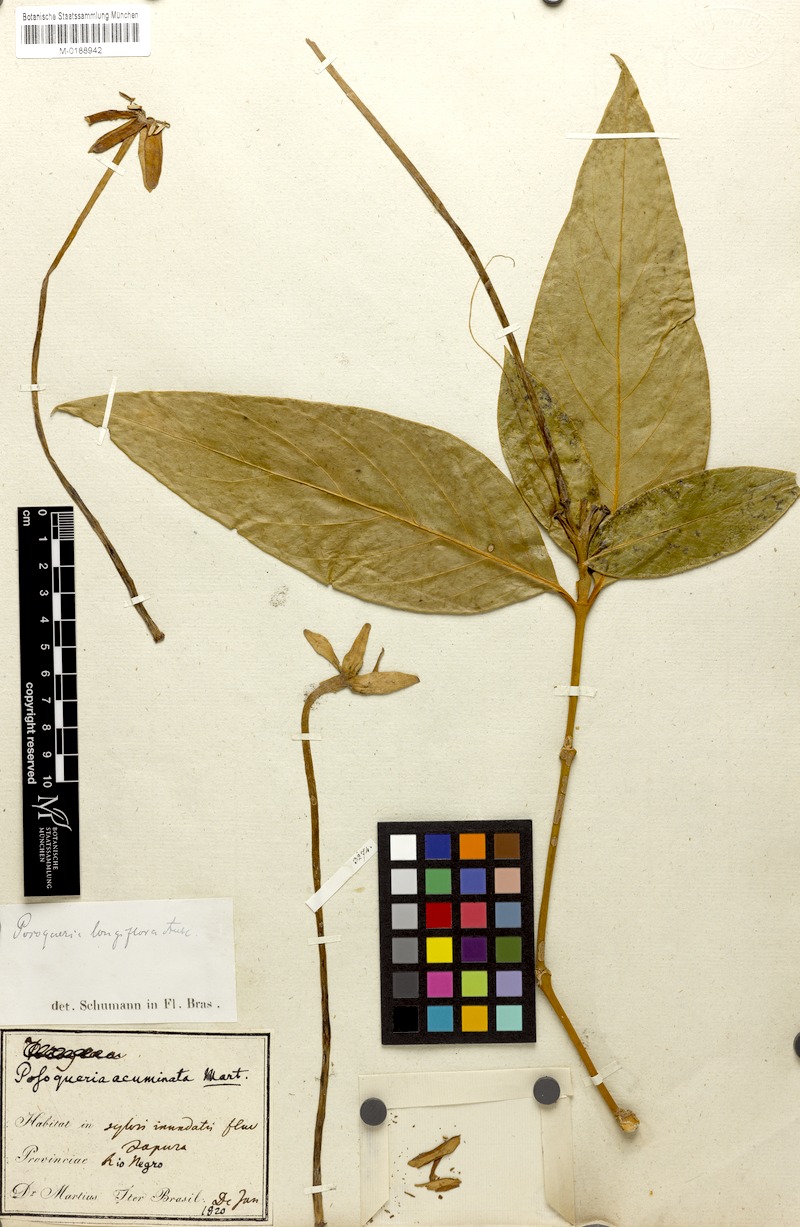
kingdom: Plantae
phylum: Tracheophyta
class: Magnoliopsida
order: Gentianales
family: Rubiaceae
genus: Posoqueria
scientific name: Posoqueria longiflora
